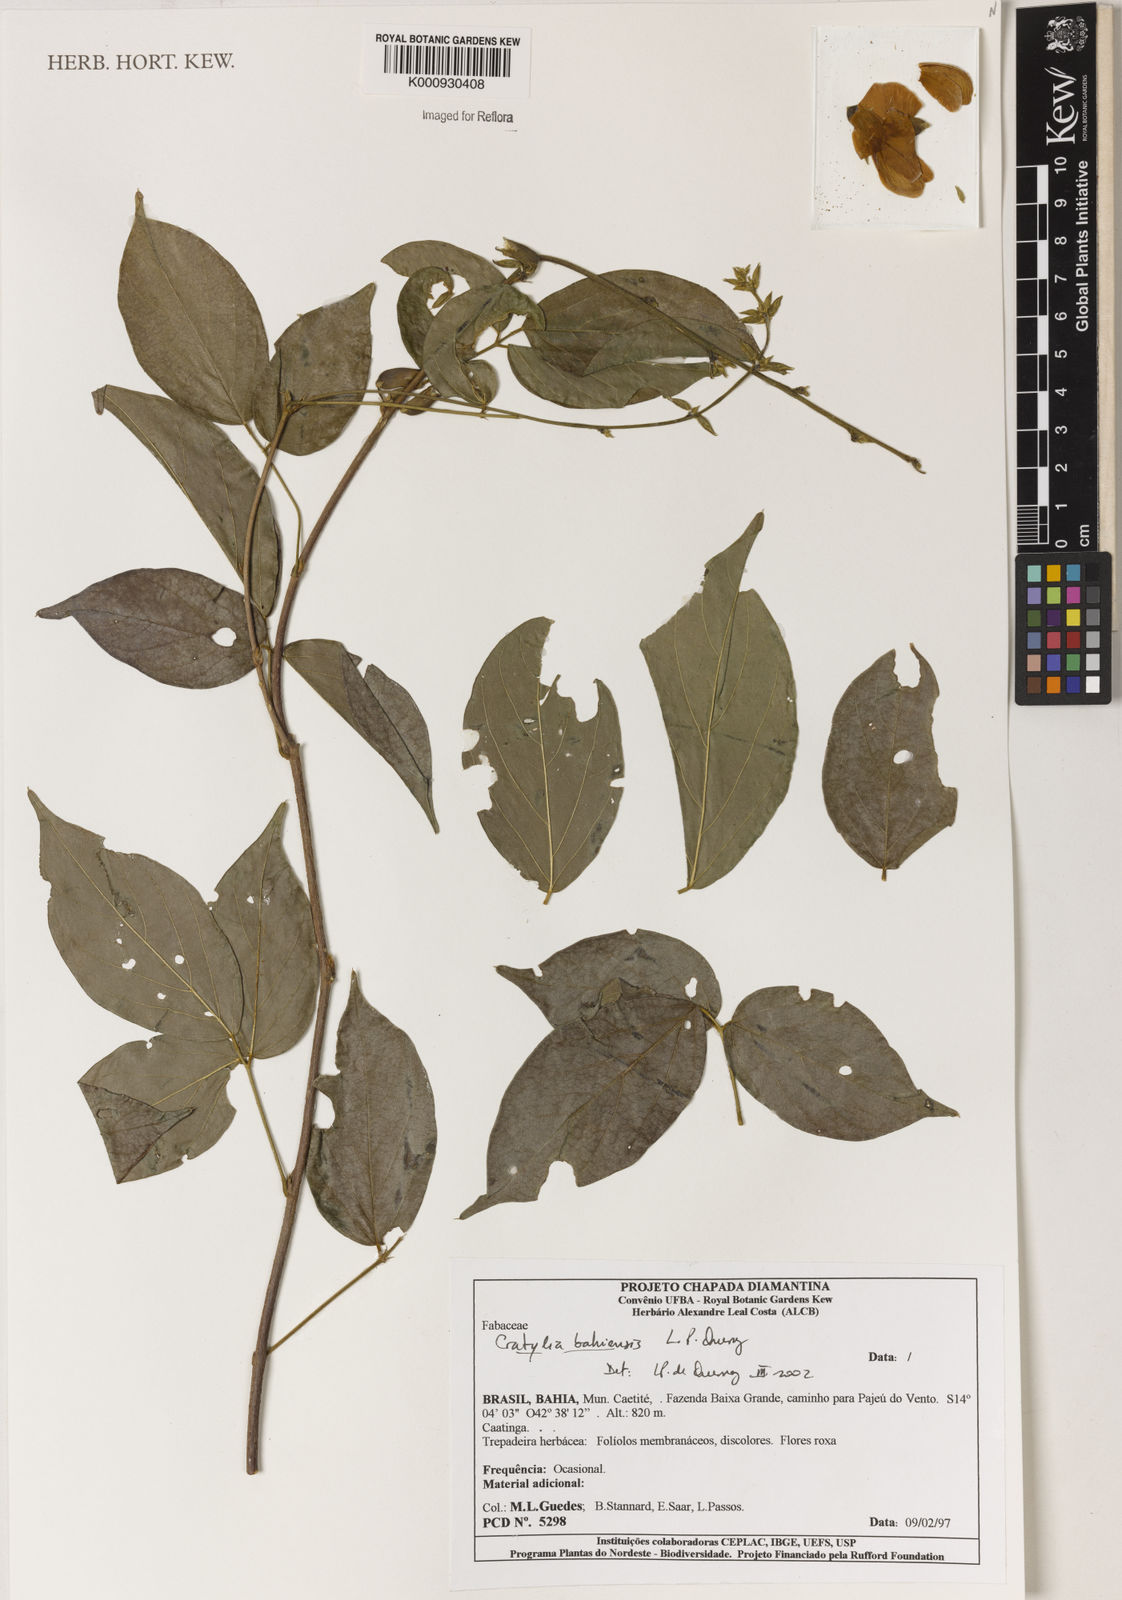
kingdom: Plantae
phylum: Tracheophyta
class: Magnoliopsida
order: Fabales
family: Fabaceae
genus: Cratylia
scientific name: Cratylia bahiensis
